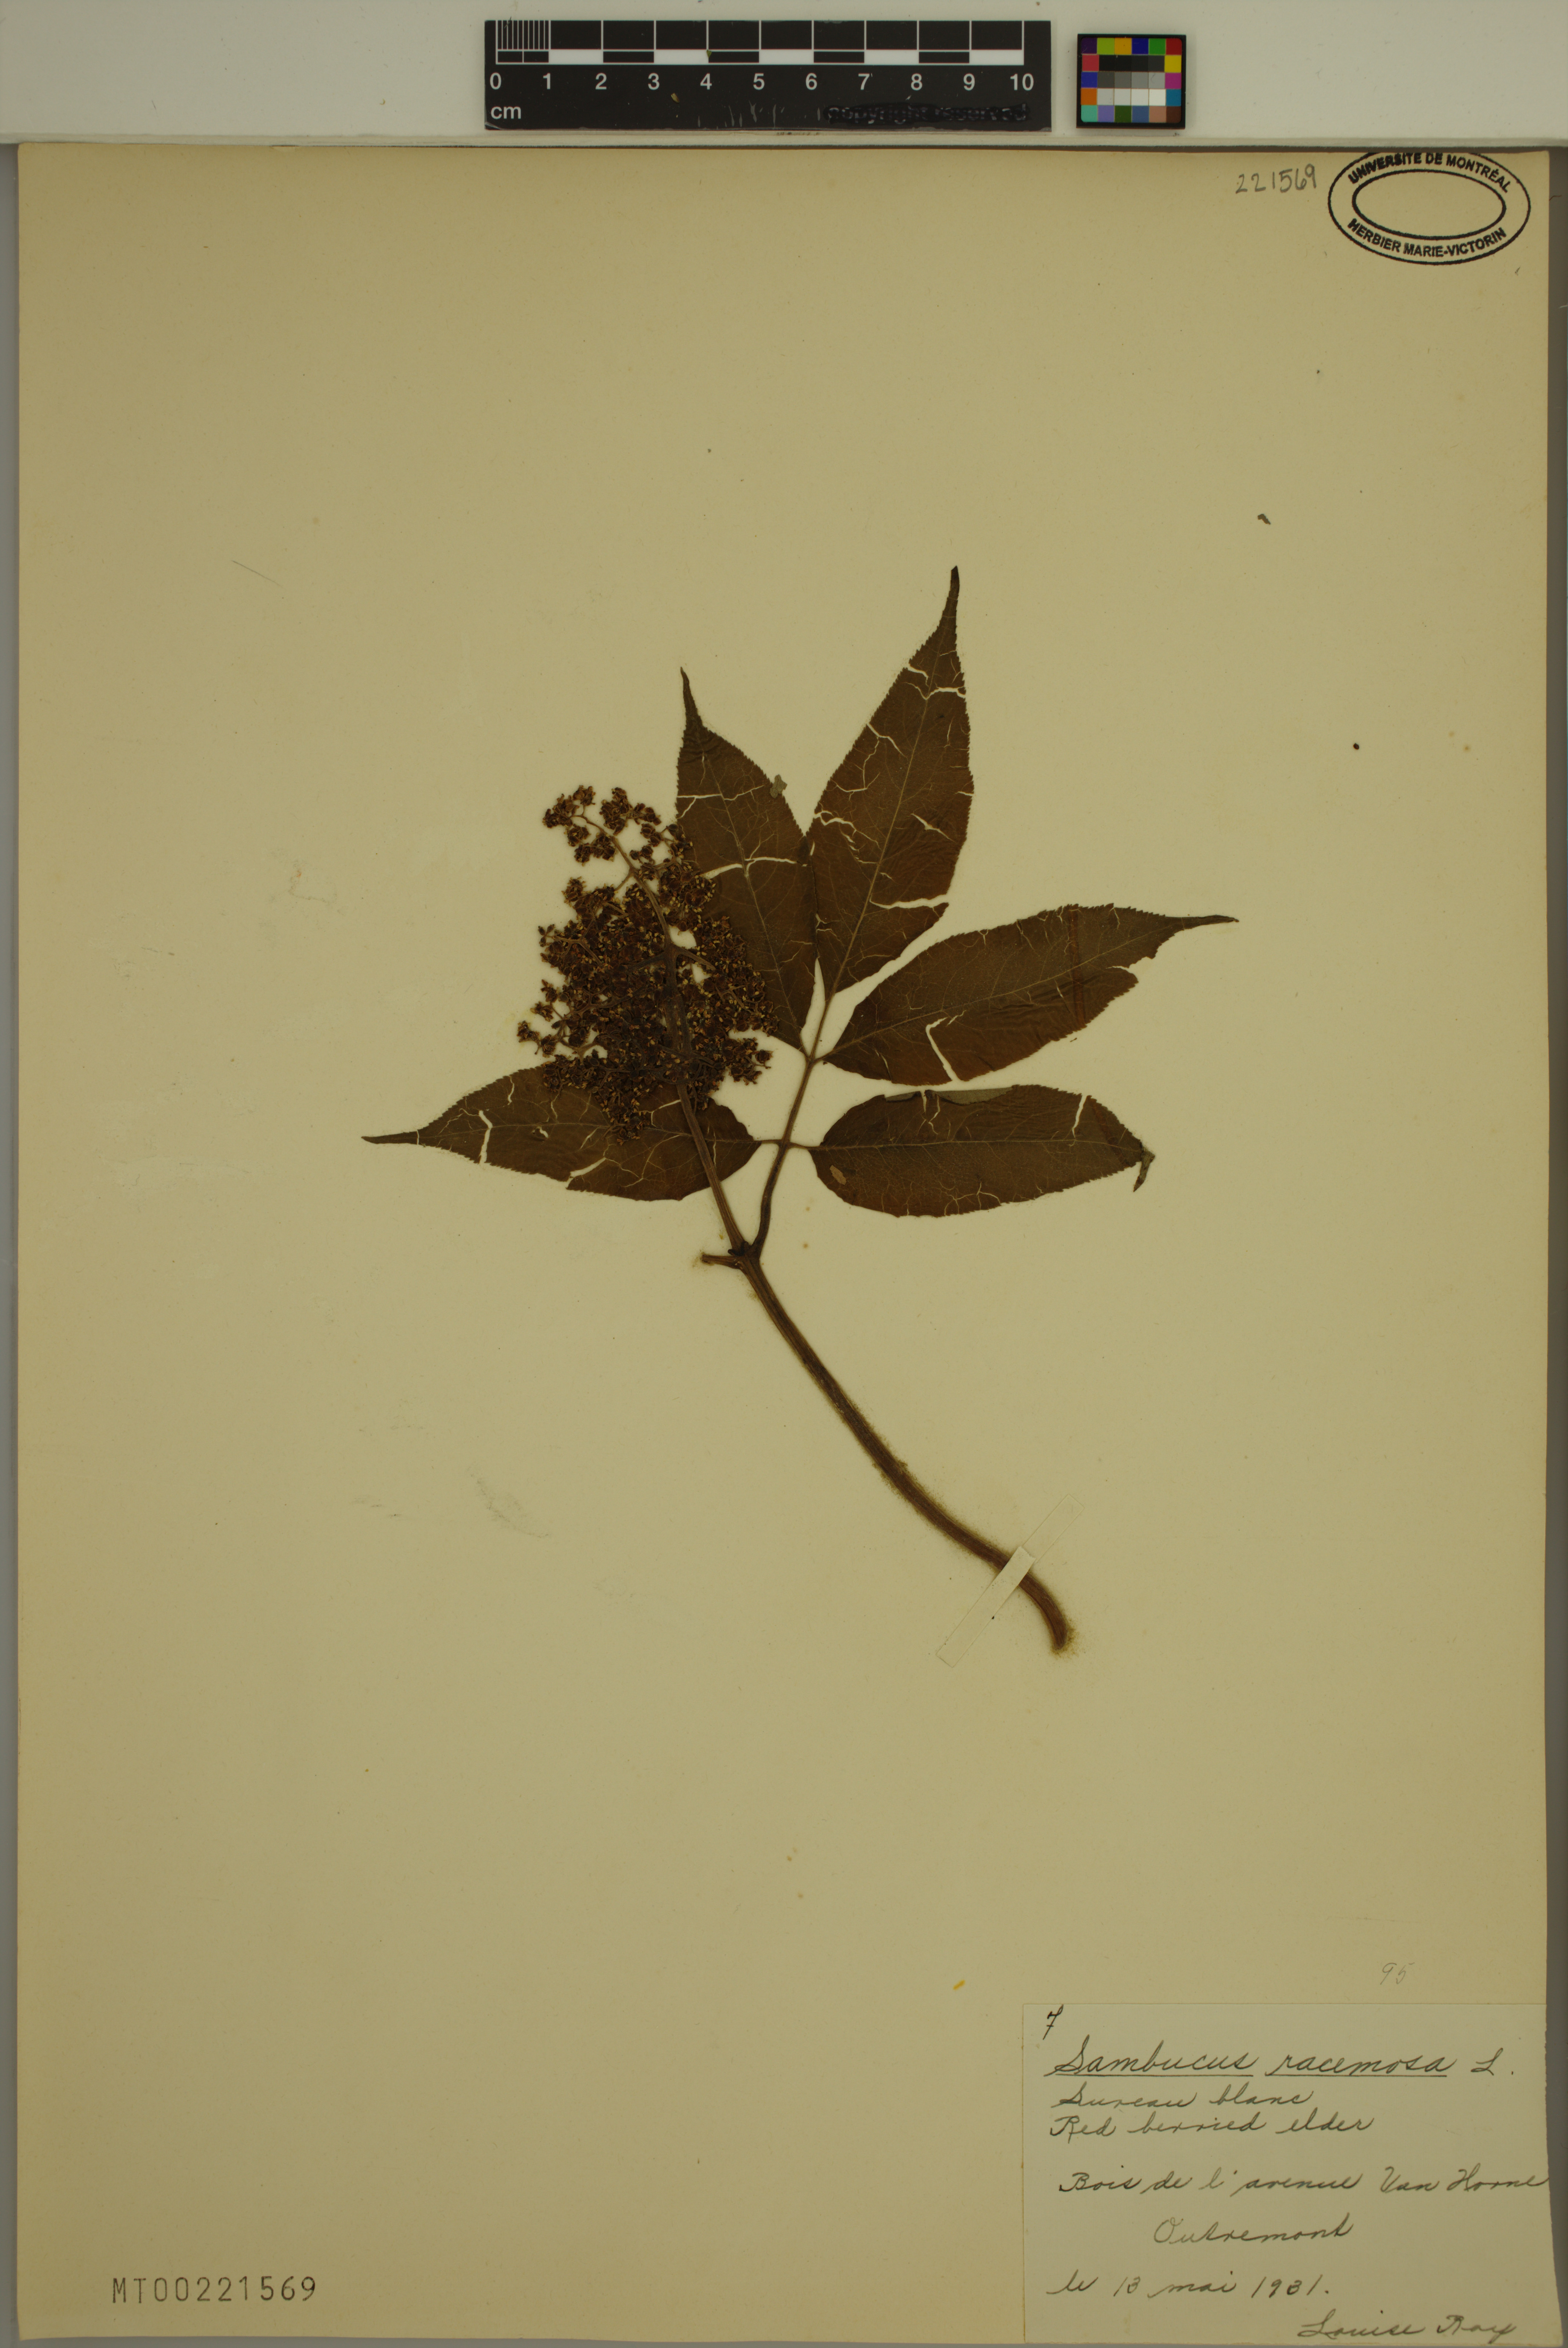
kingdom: Plantae
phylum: Tracheophyta
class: Magnoliopsida
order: Dipsacales
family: Viburnaceae
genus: Sambucus
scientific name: Sambucus racemosa
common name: Red-berried elder
